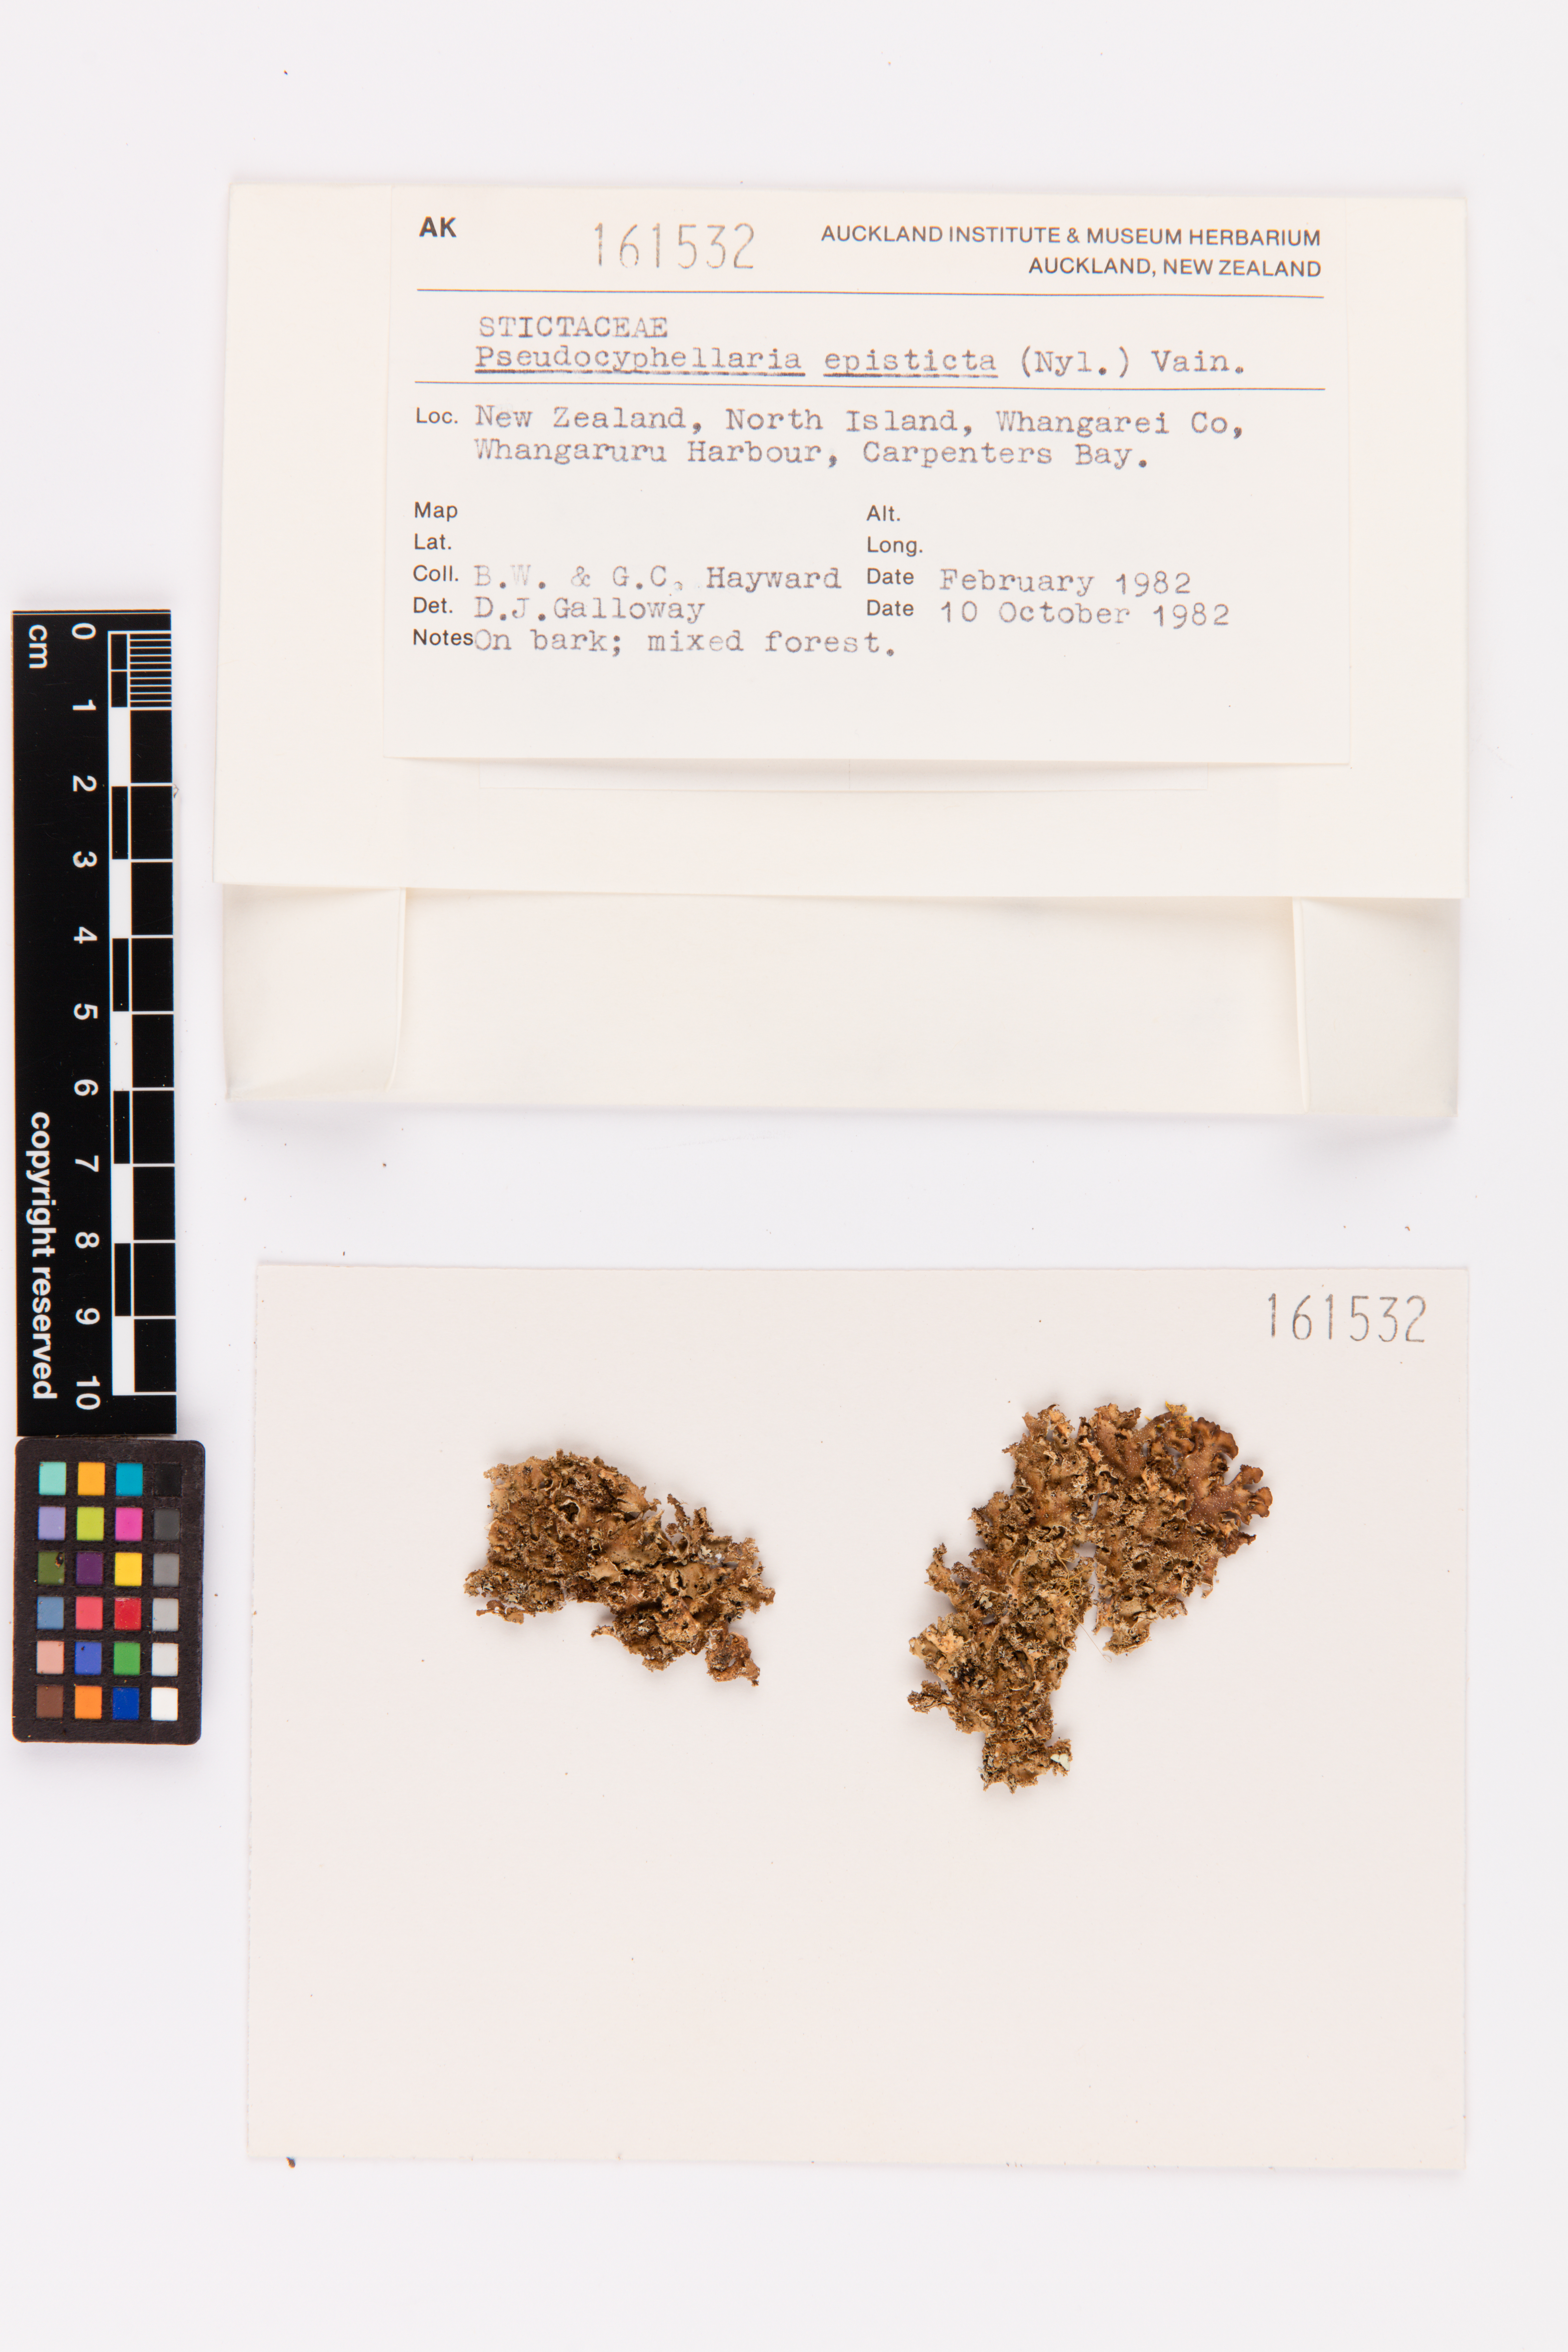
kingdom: Fungi
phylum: Ascomycota
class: Lecanoromycetes
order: Peltigerales
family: Lobariaceae
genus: Pseudocyphellaria
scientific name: Pseudocyphellaria episticta
